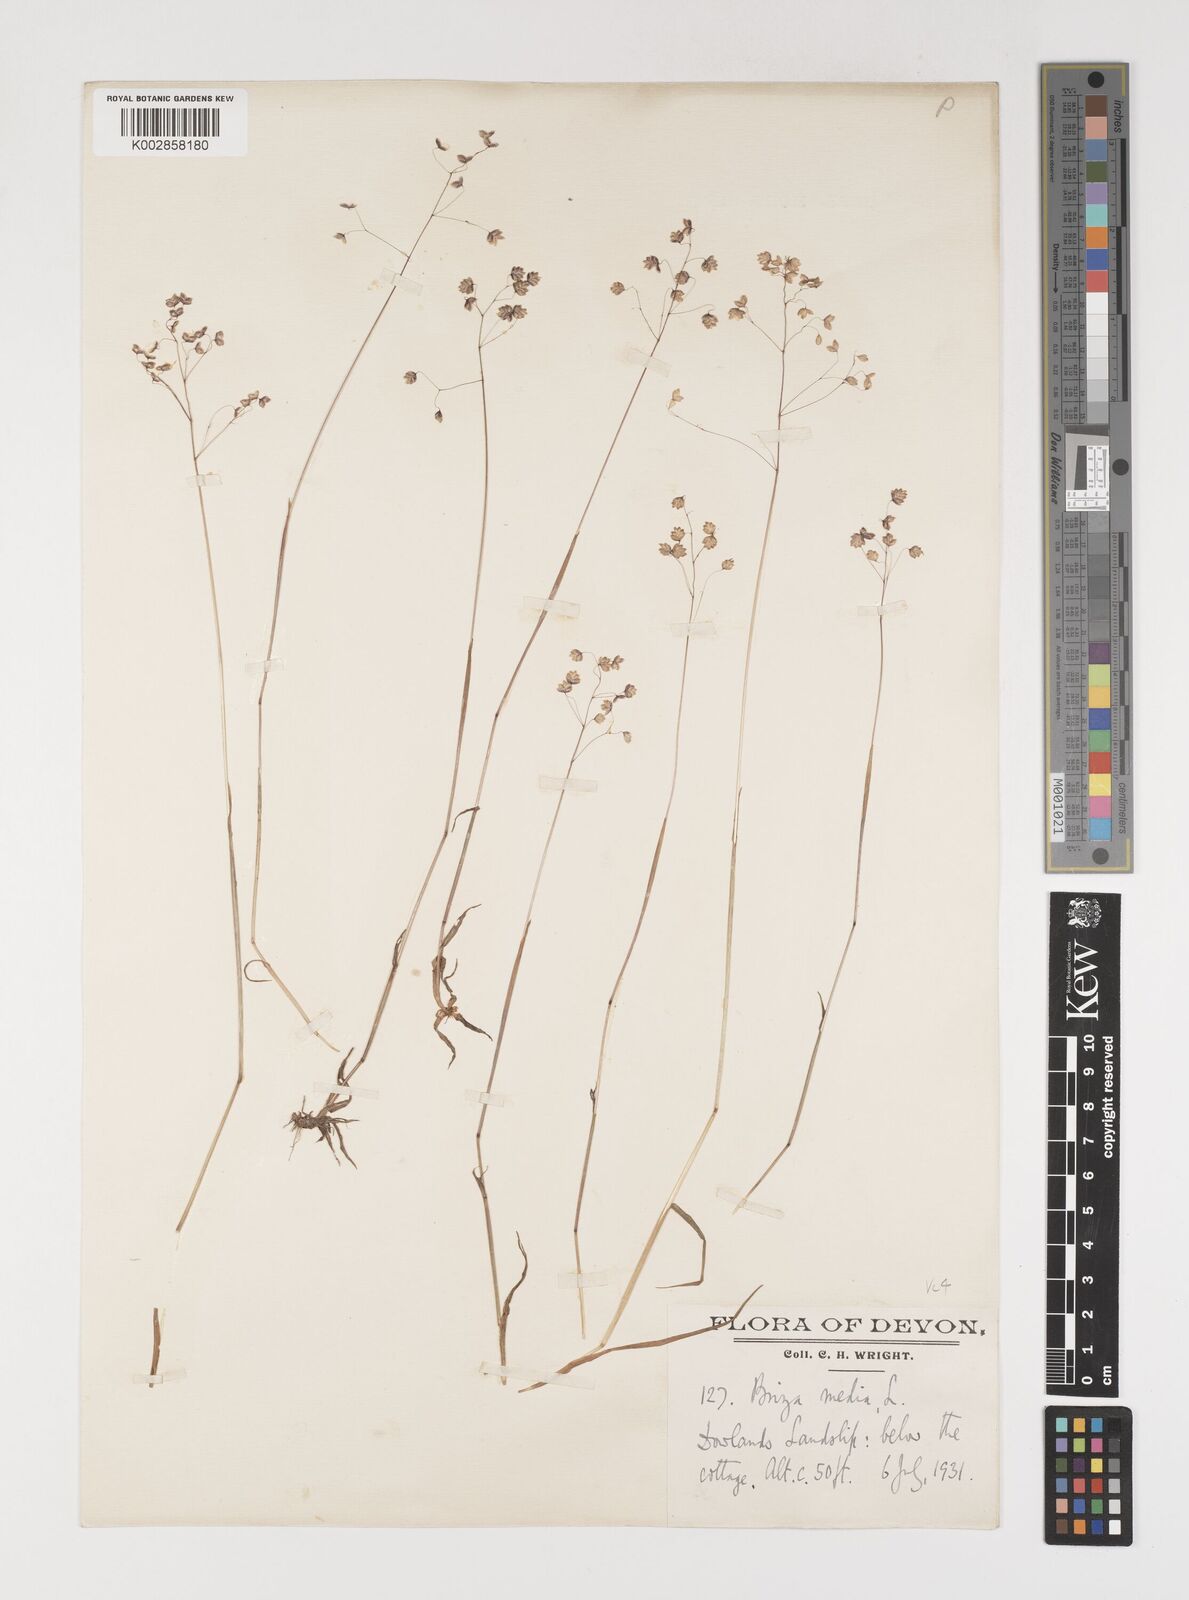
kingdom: Plantae
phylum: Tracheophyta
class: Liliopsida
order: Poales
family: Poaceae
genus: Briza
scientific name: Briza media
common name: Quaking grass
